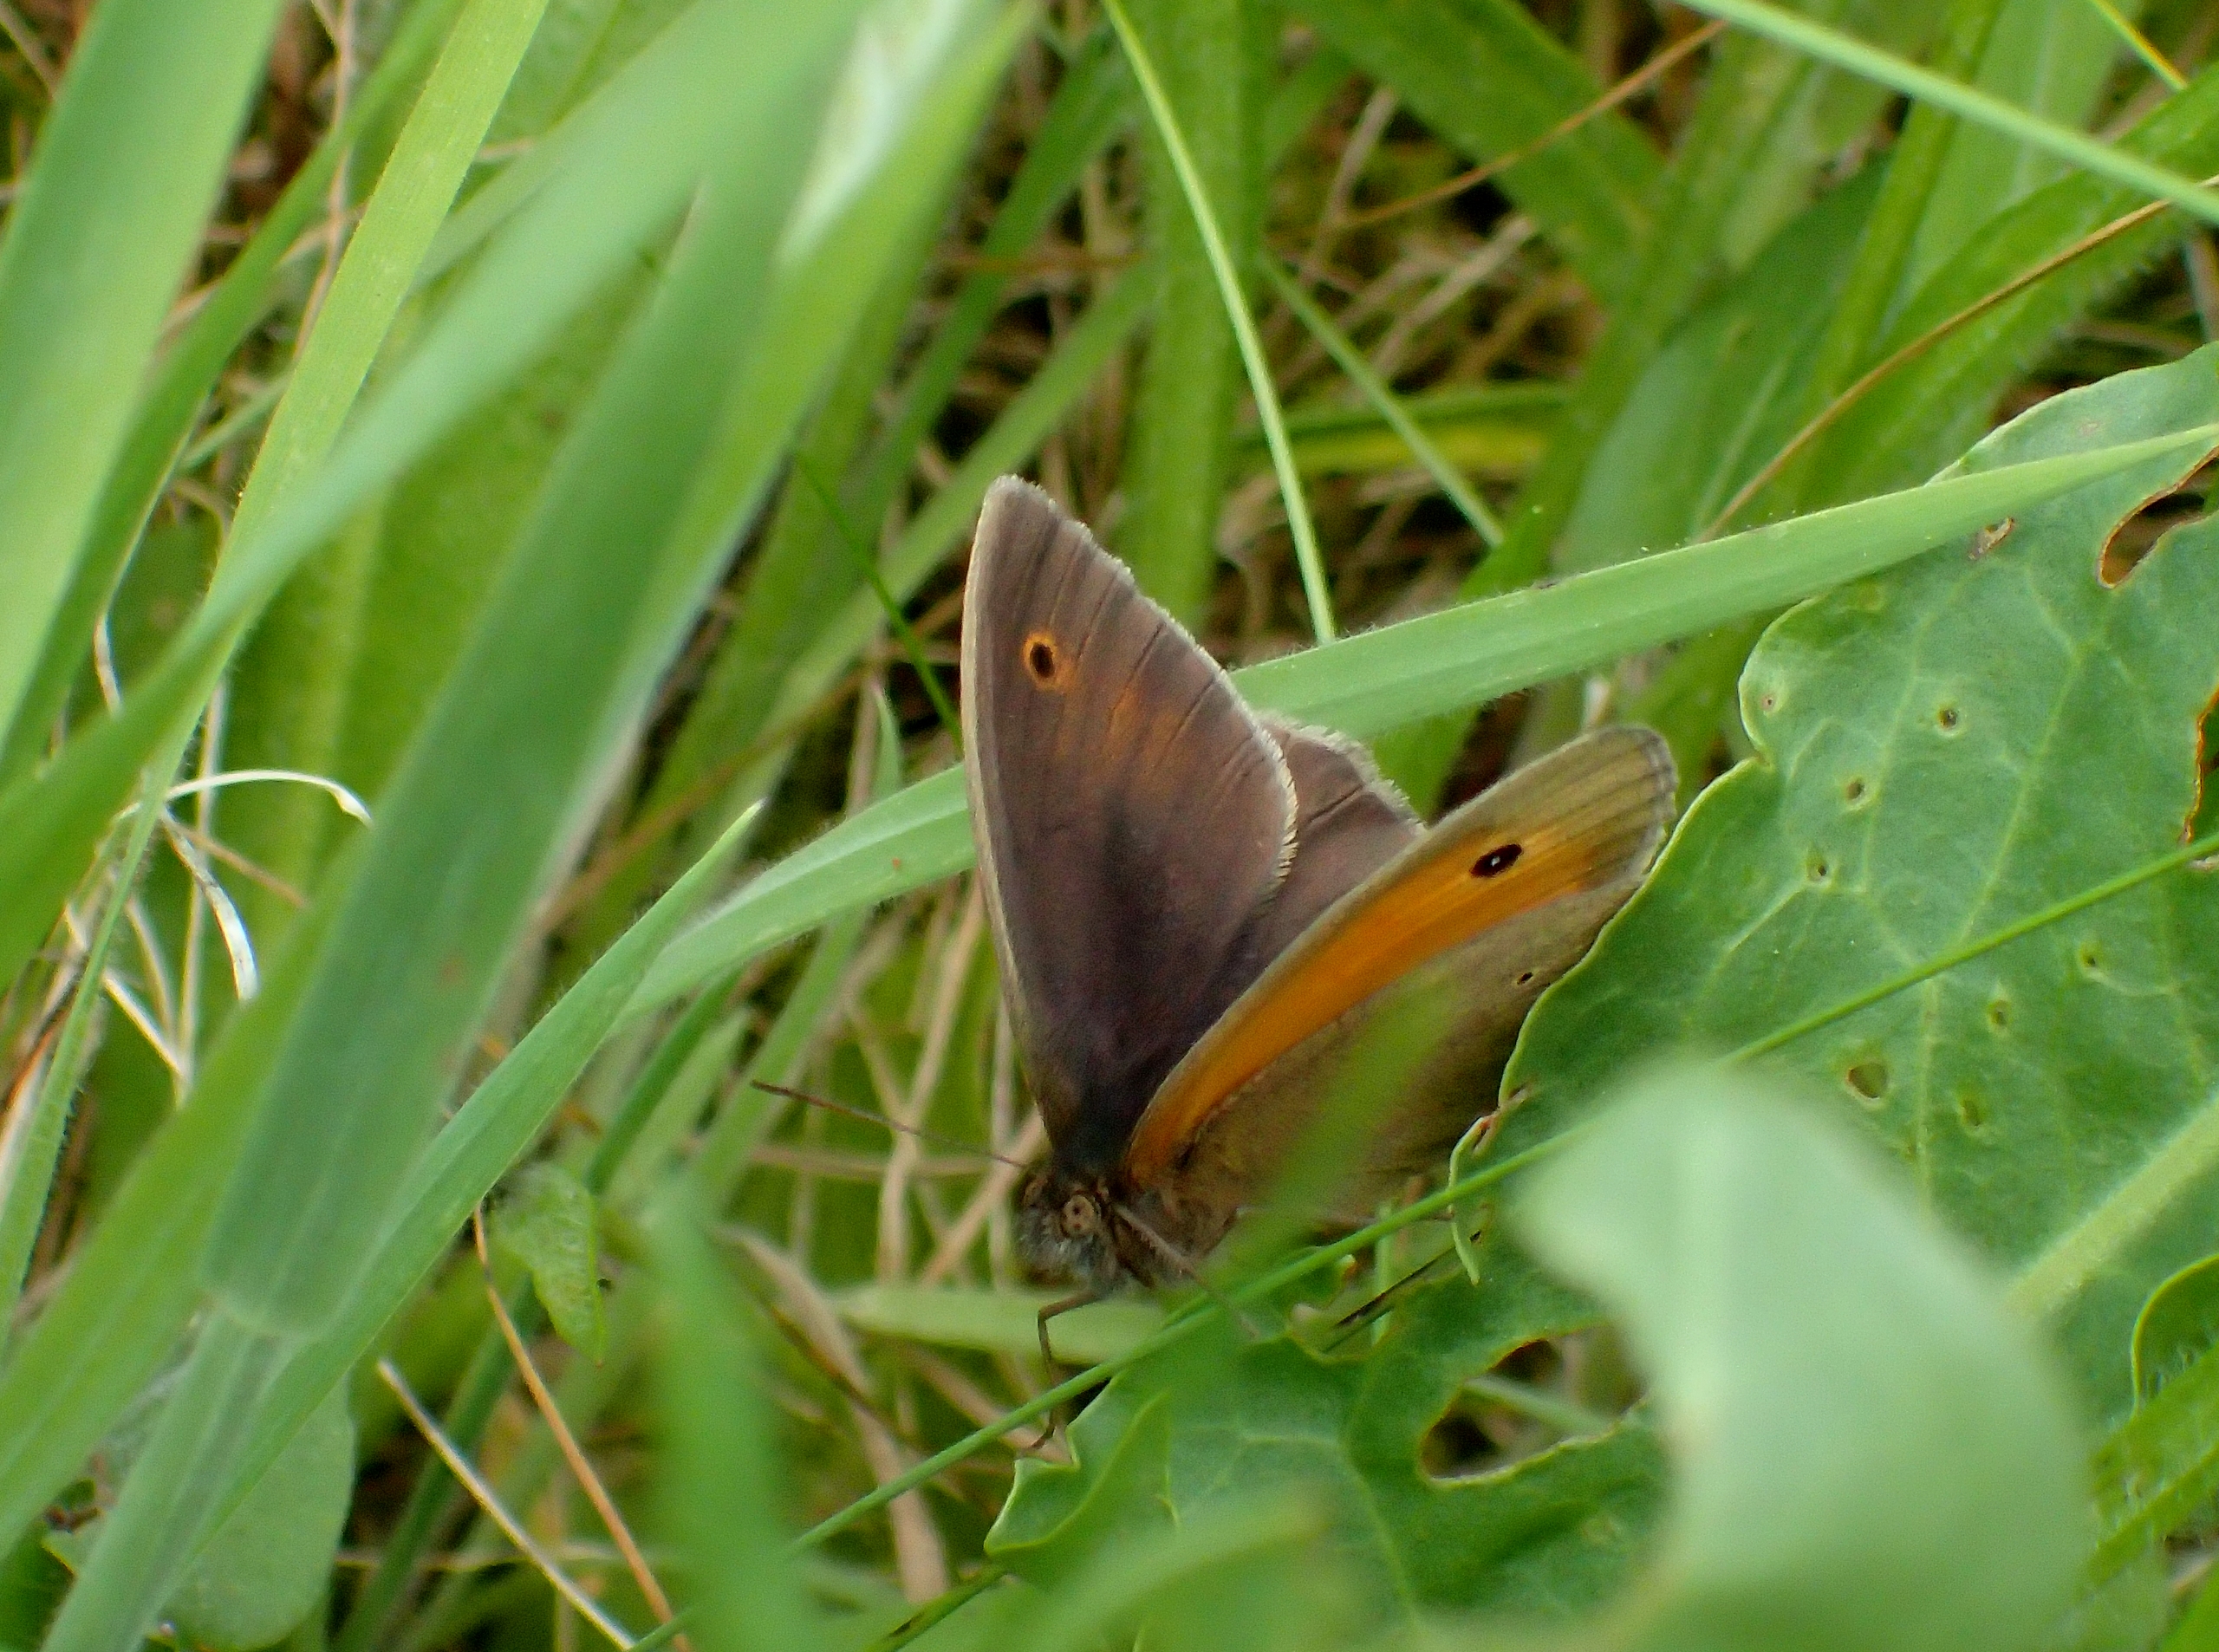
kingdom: Animalia
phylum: Arthropoda
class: Insecta
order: Lepidoptera
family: Nymphalidae
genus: Maniola
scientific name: Maniola jurtina
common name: Græsrandøje
